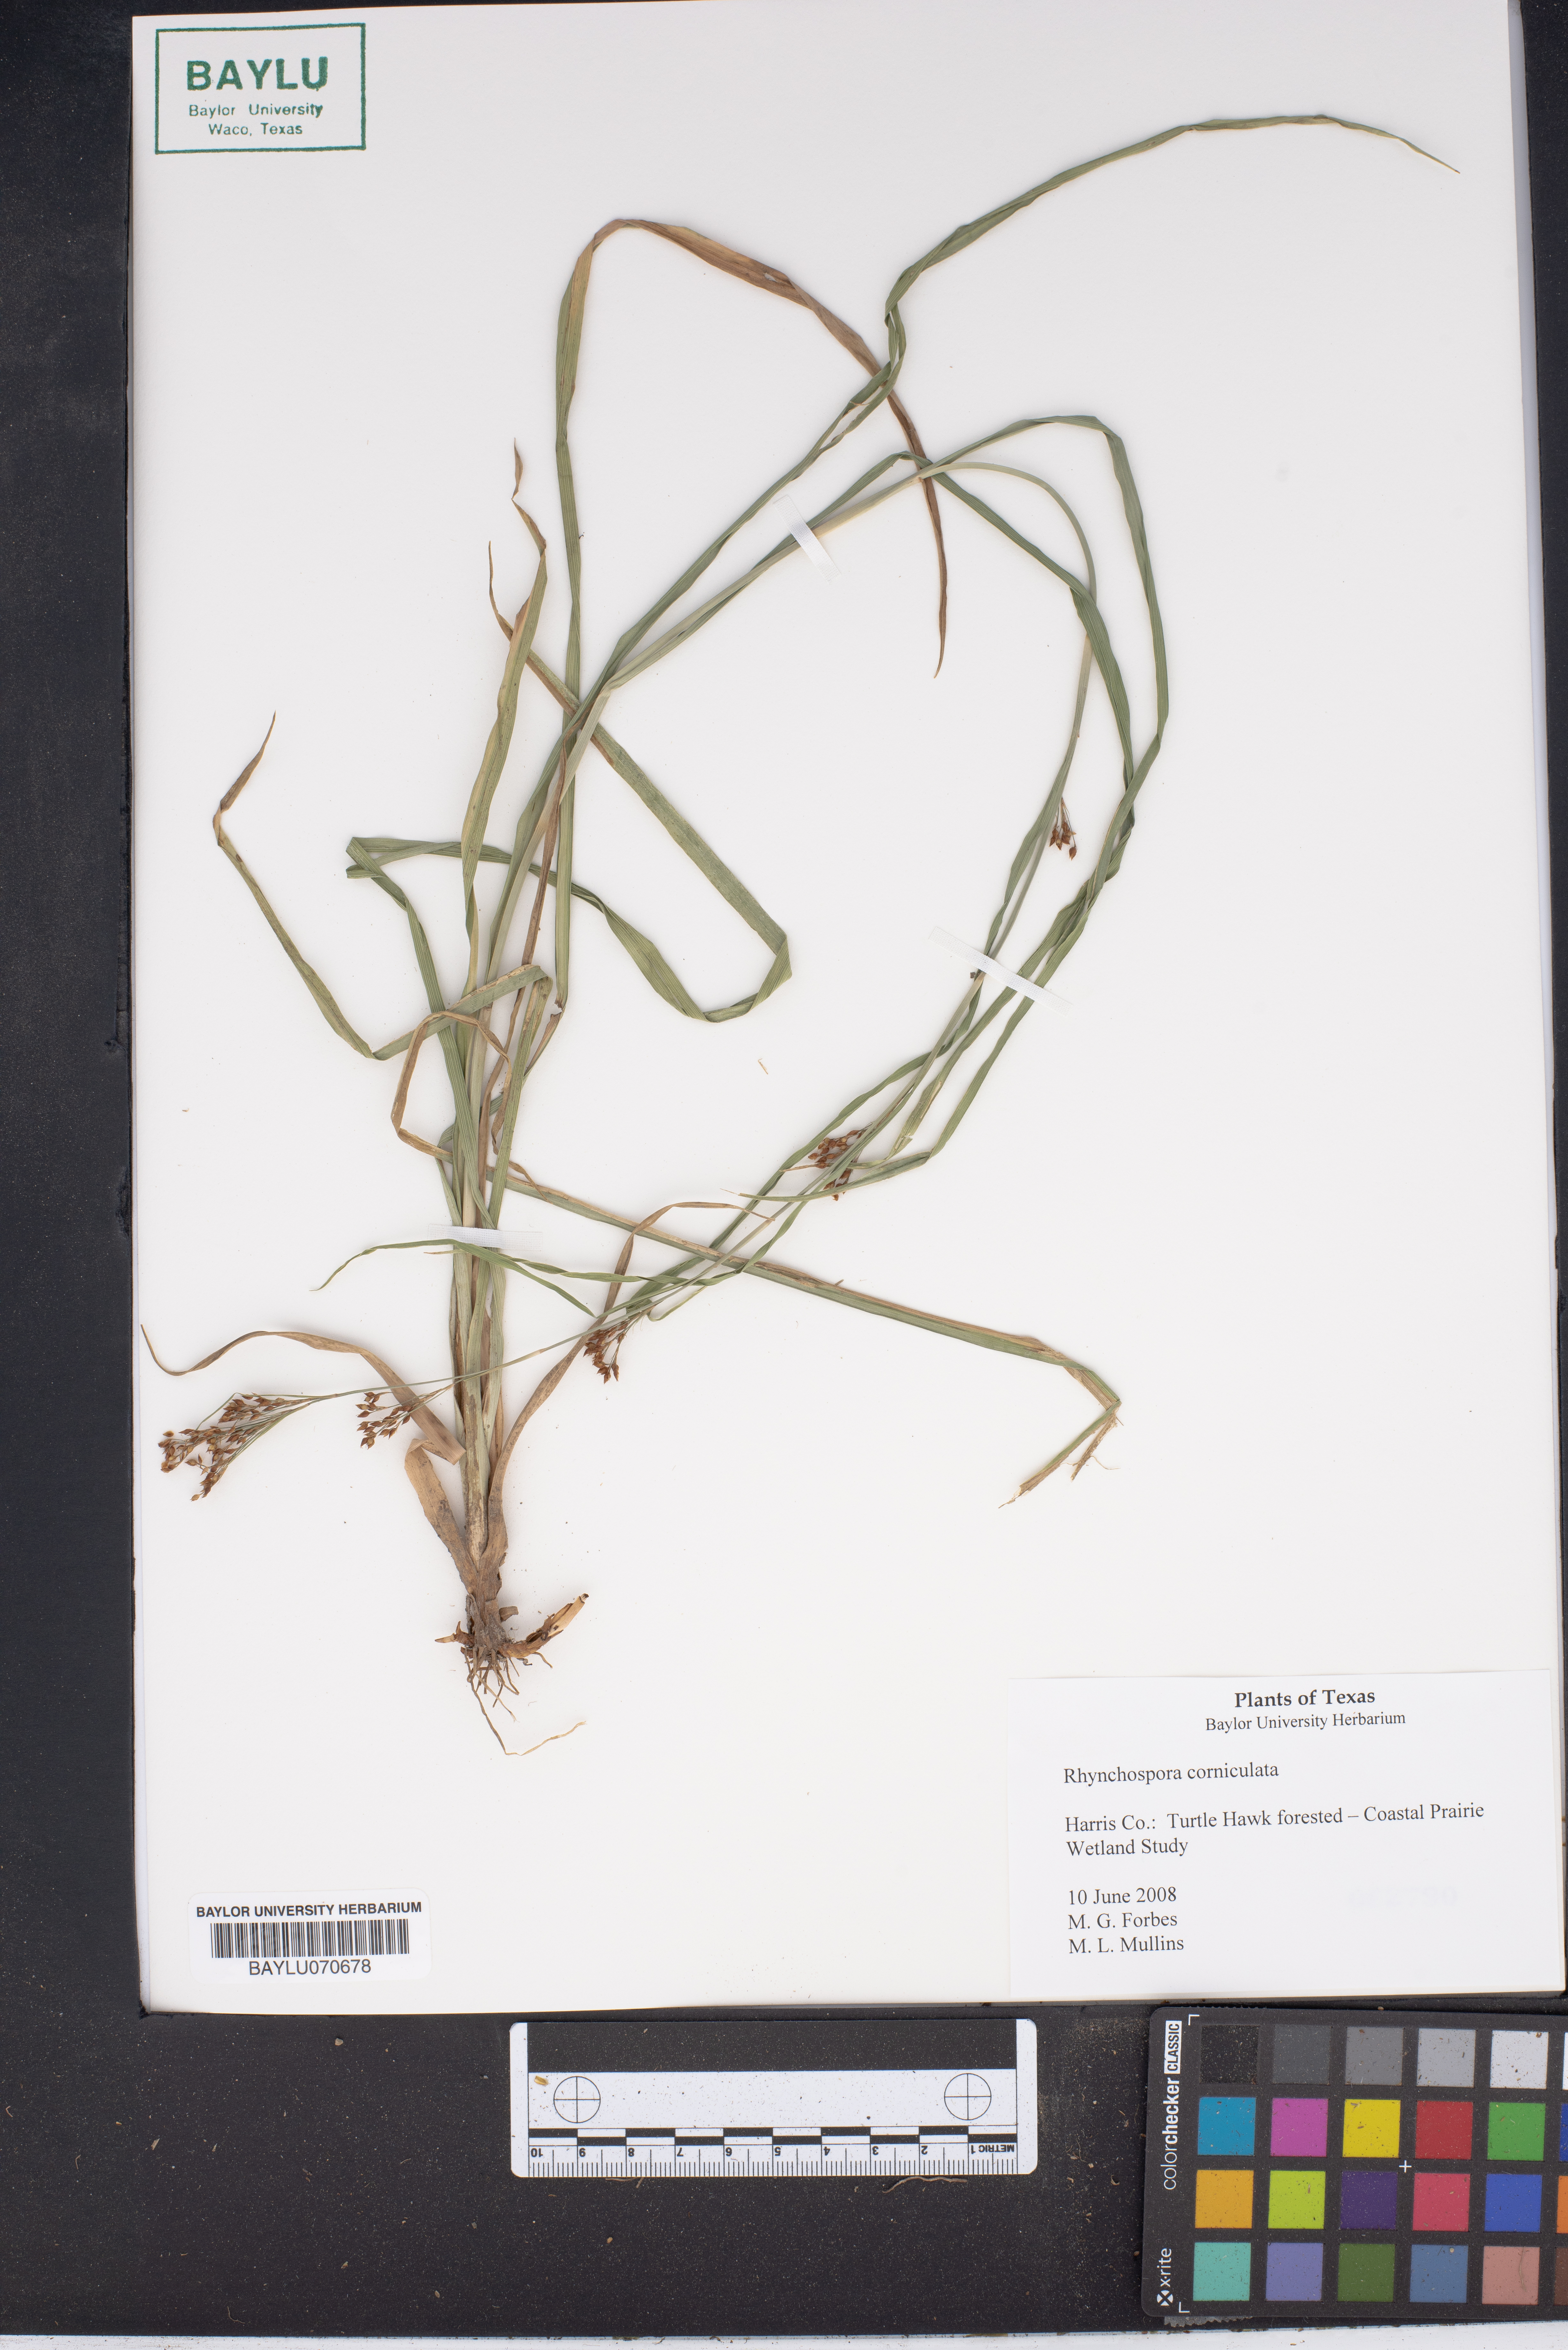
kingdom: Plantae
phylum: Tracheophyta
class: Liliopsida
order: Poales
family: Cyperaceae
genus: Rhynchospora
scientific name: Rhynchospora corniculata
